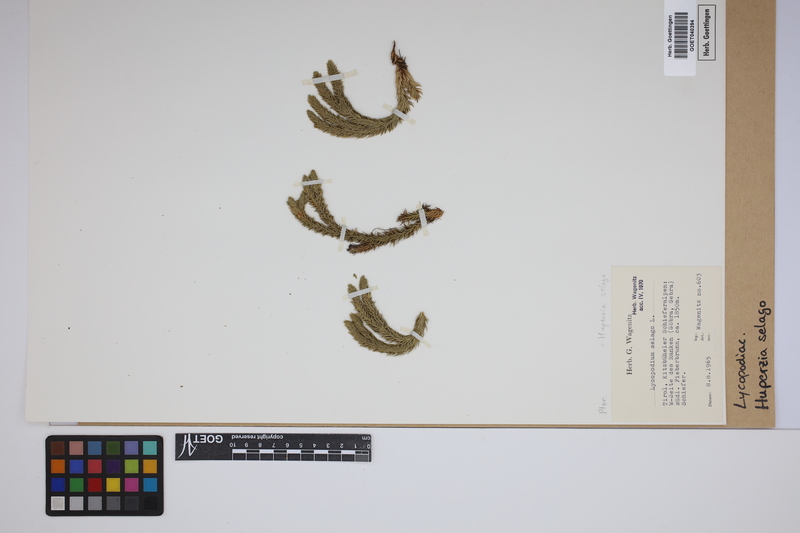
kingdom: Plantae
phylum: Tracheophyta
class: Lycopodiopsida
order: Lycopodiales
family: Lycopodiaceae
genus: Huperzia
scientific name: Huperzia selago
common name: Northern firmoss
